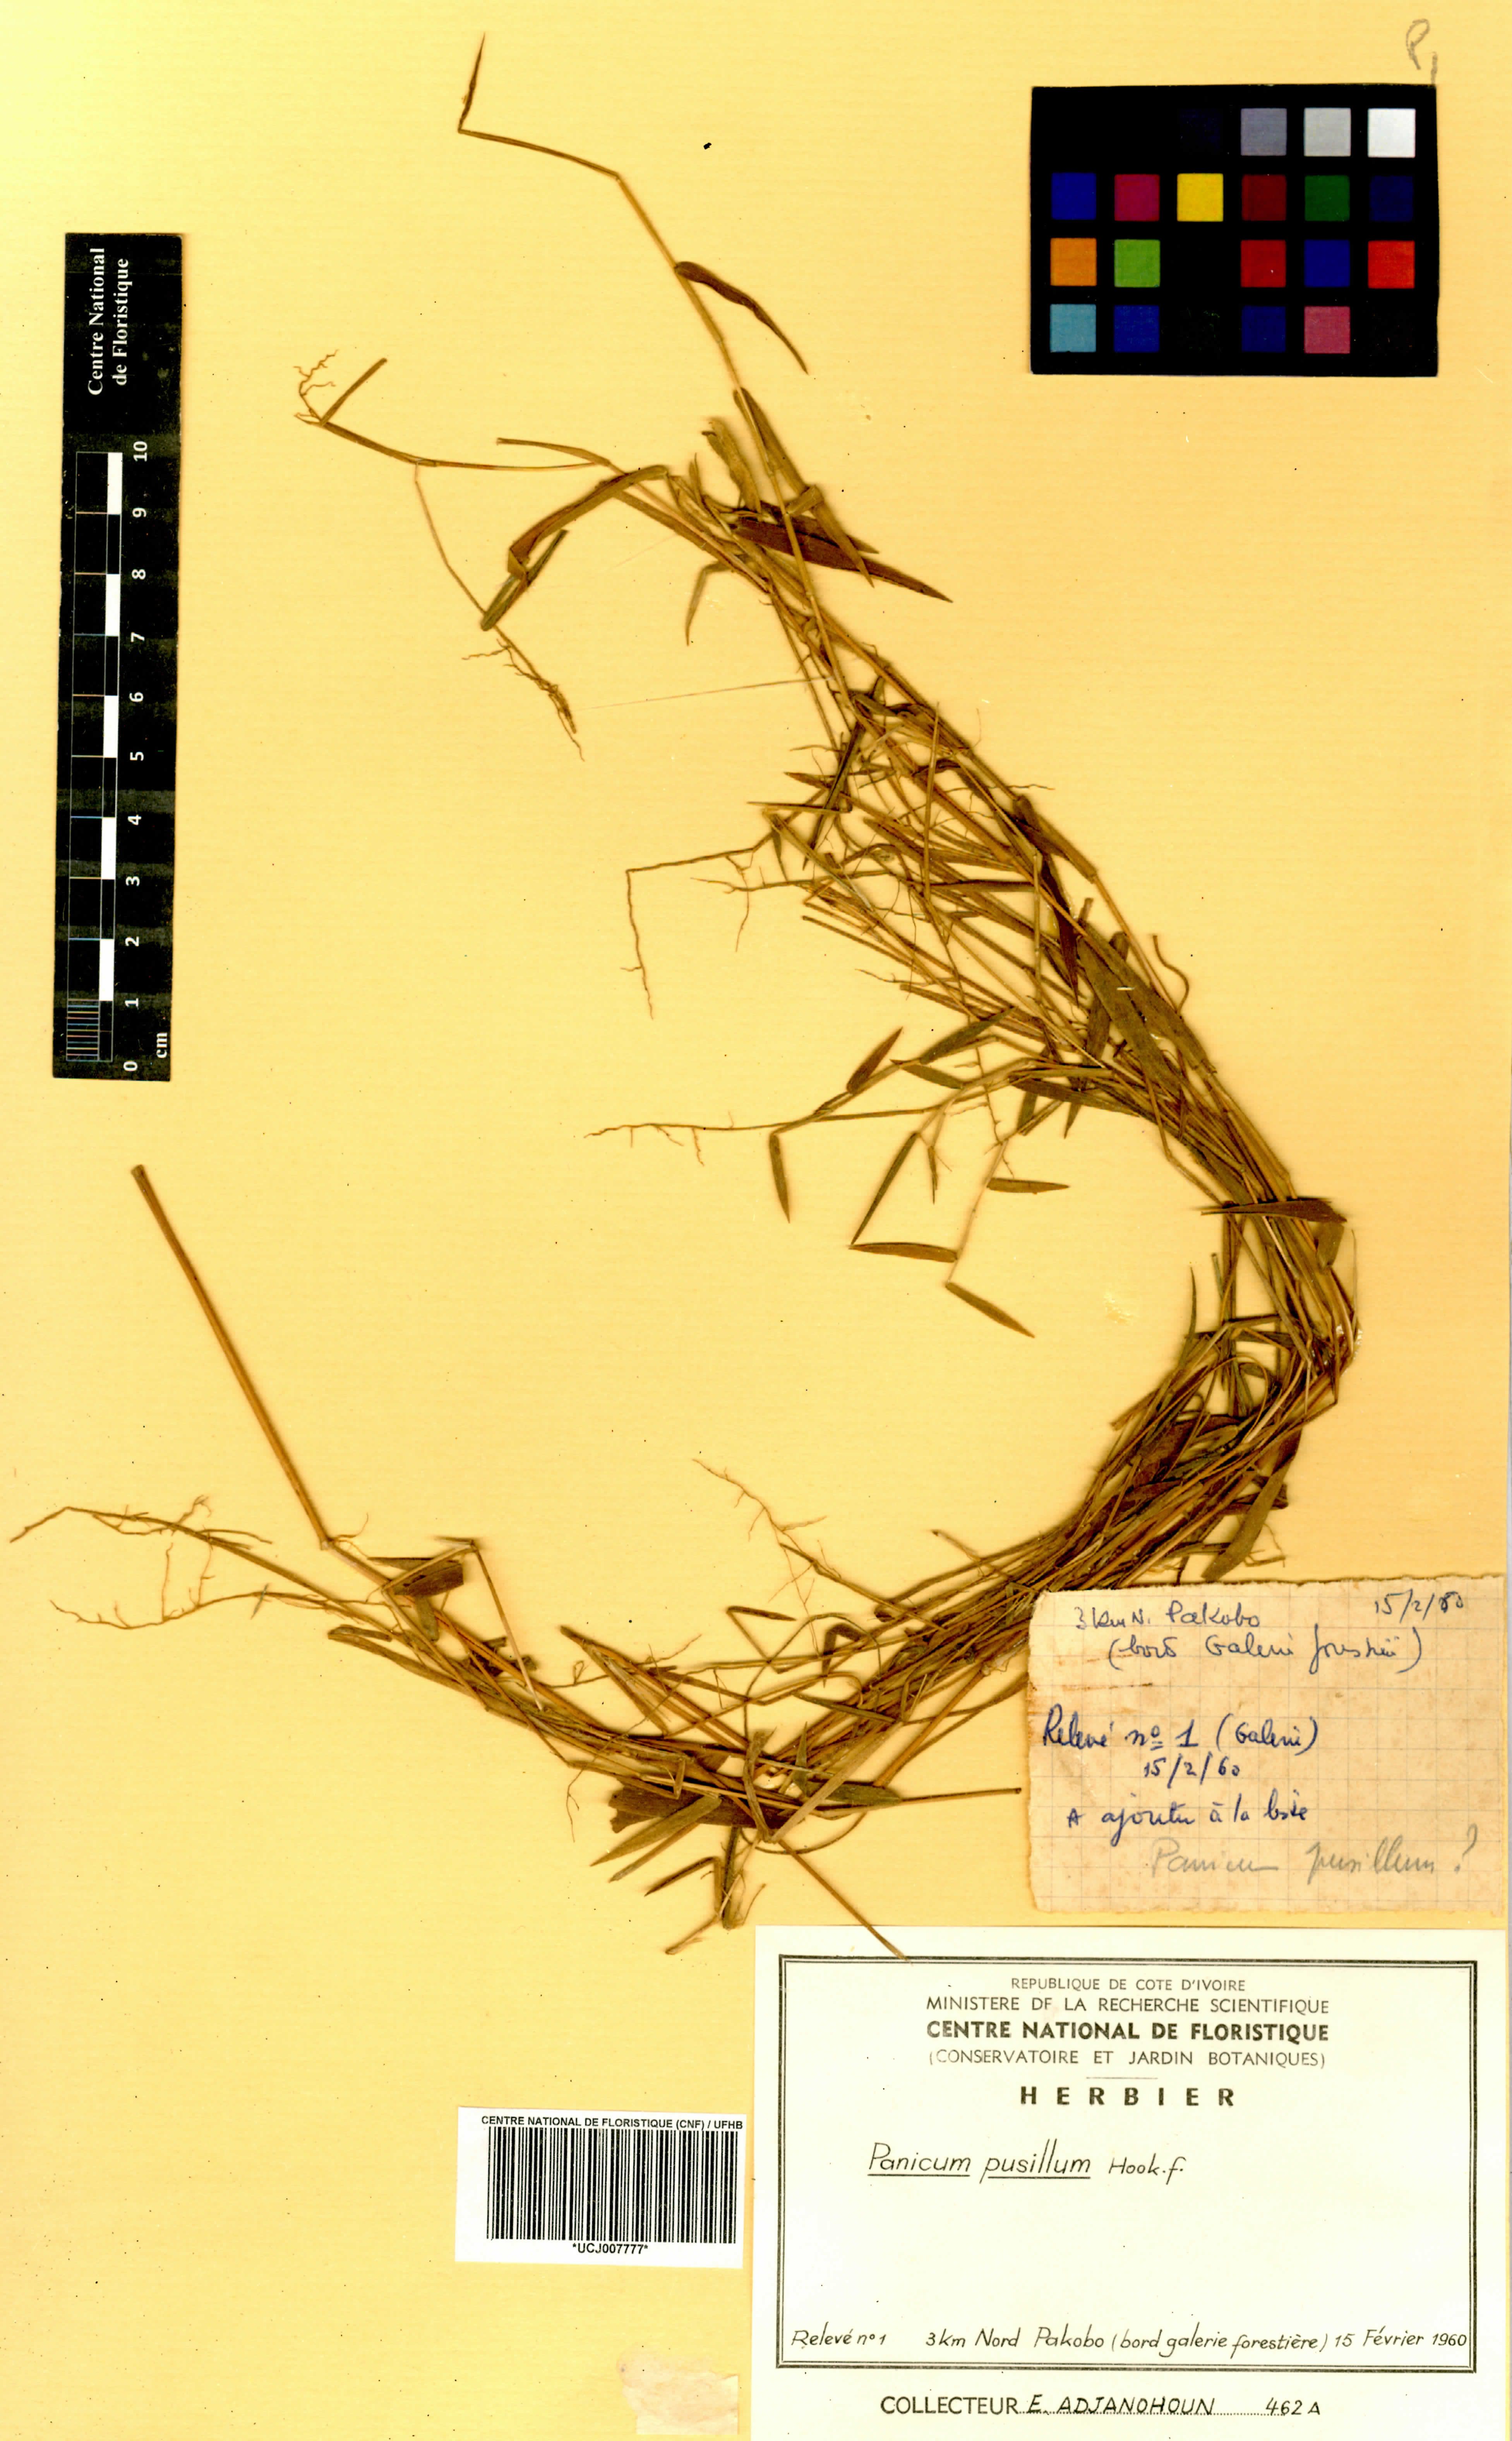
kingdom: Plantae
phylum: Tracheophyta
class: Liliopsida
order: Poales
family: Poaceae
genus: Panicum
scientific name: Panicum pusillum
